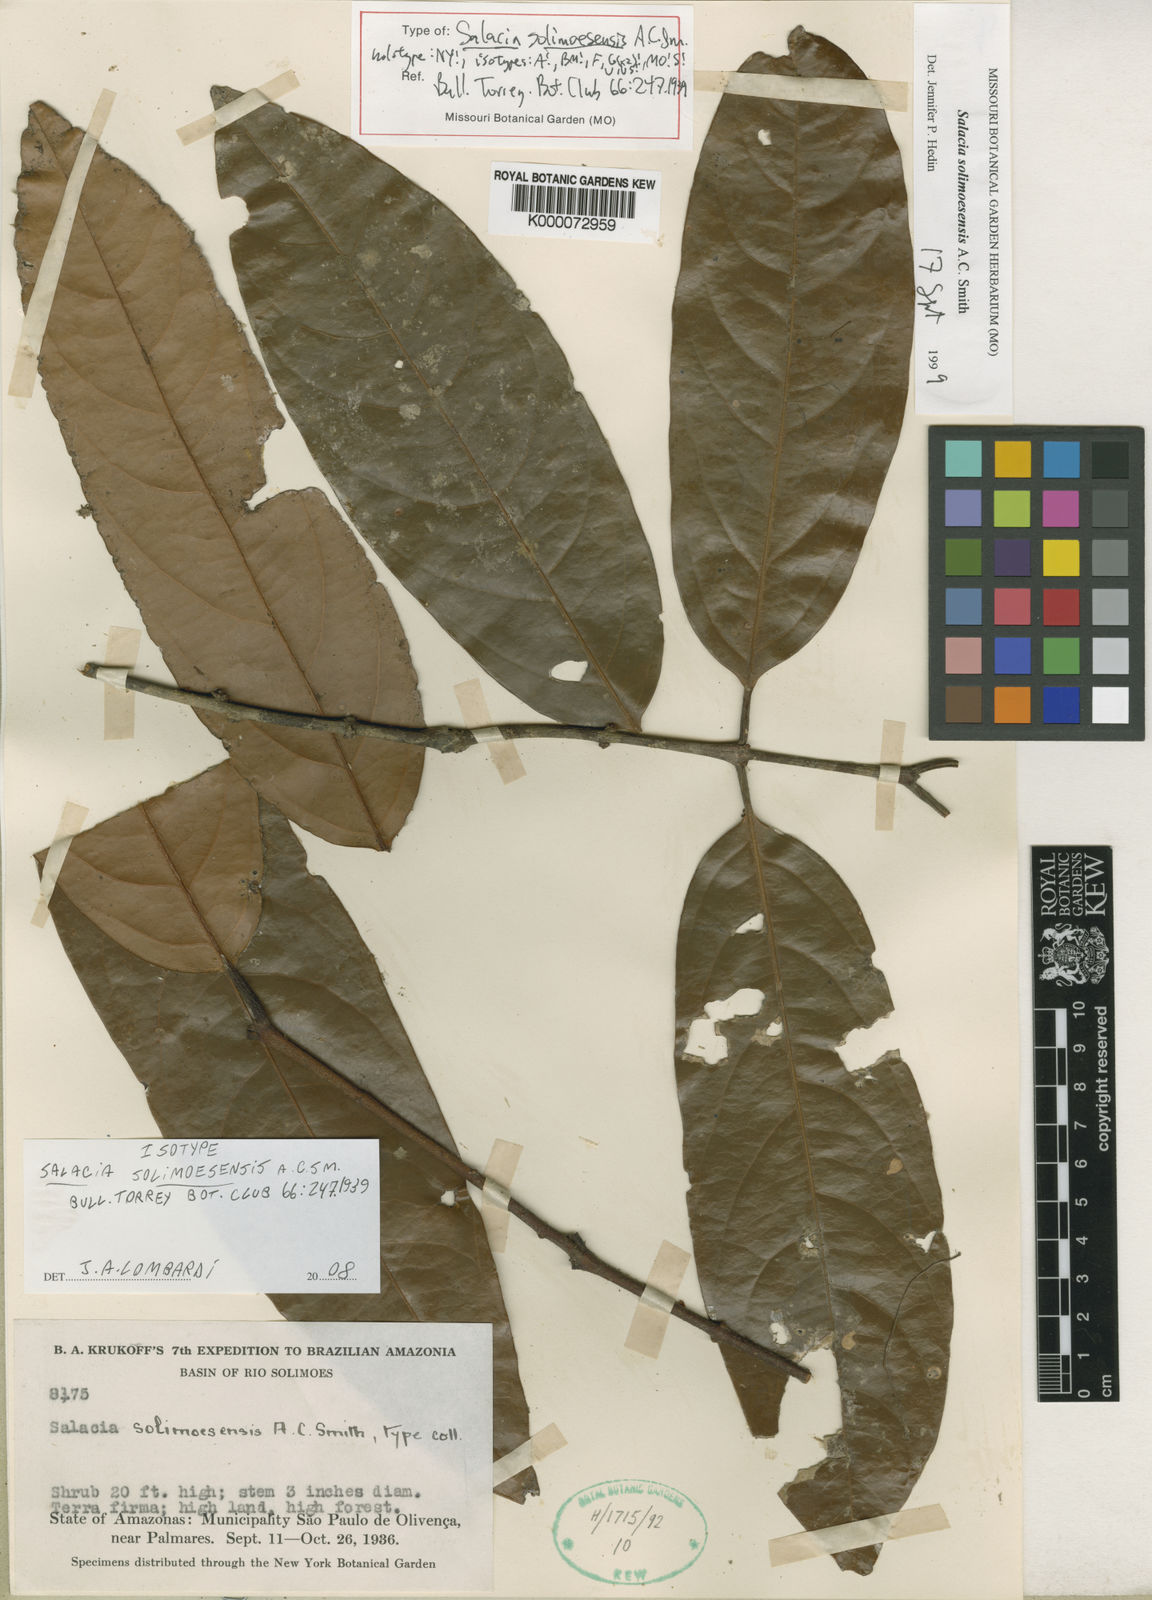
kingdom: Plantae
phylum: Tracheophyta
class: Magnoliopsida
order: Celastrales
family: Celastraceae
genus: Salacia
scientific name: Salacia solimoesensis
